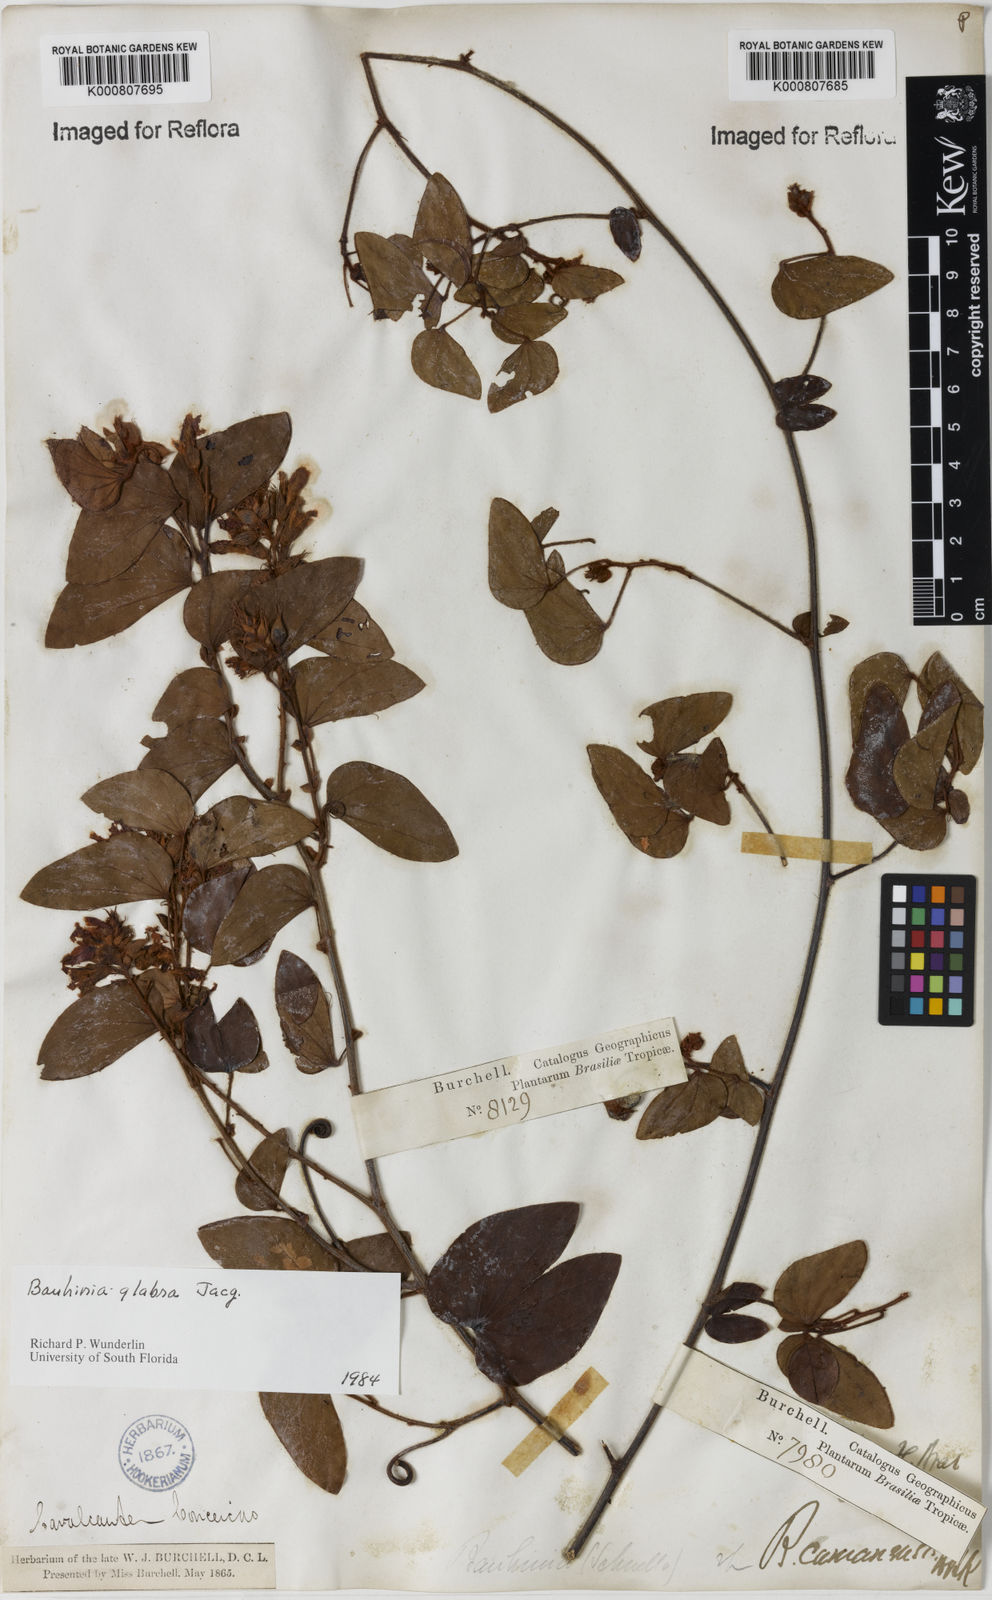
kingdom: Plantae
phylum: Tracheophyta
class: Magnoliopsida
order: Fabales
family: Fabaceae
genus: Schnella
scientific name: Schnella glabra
